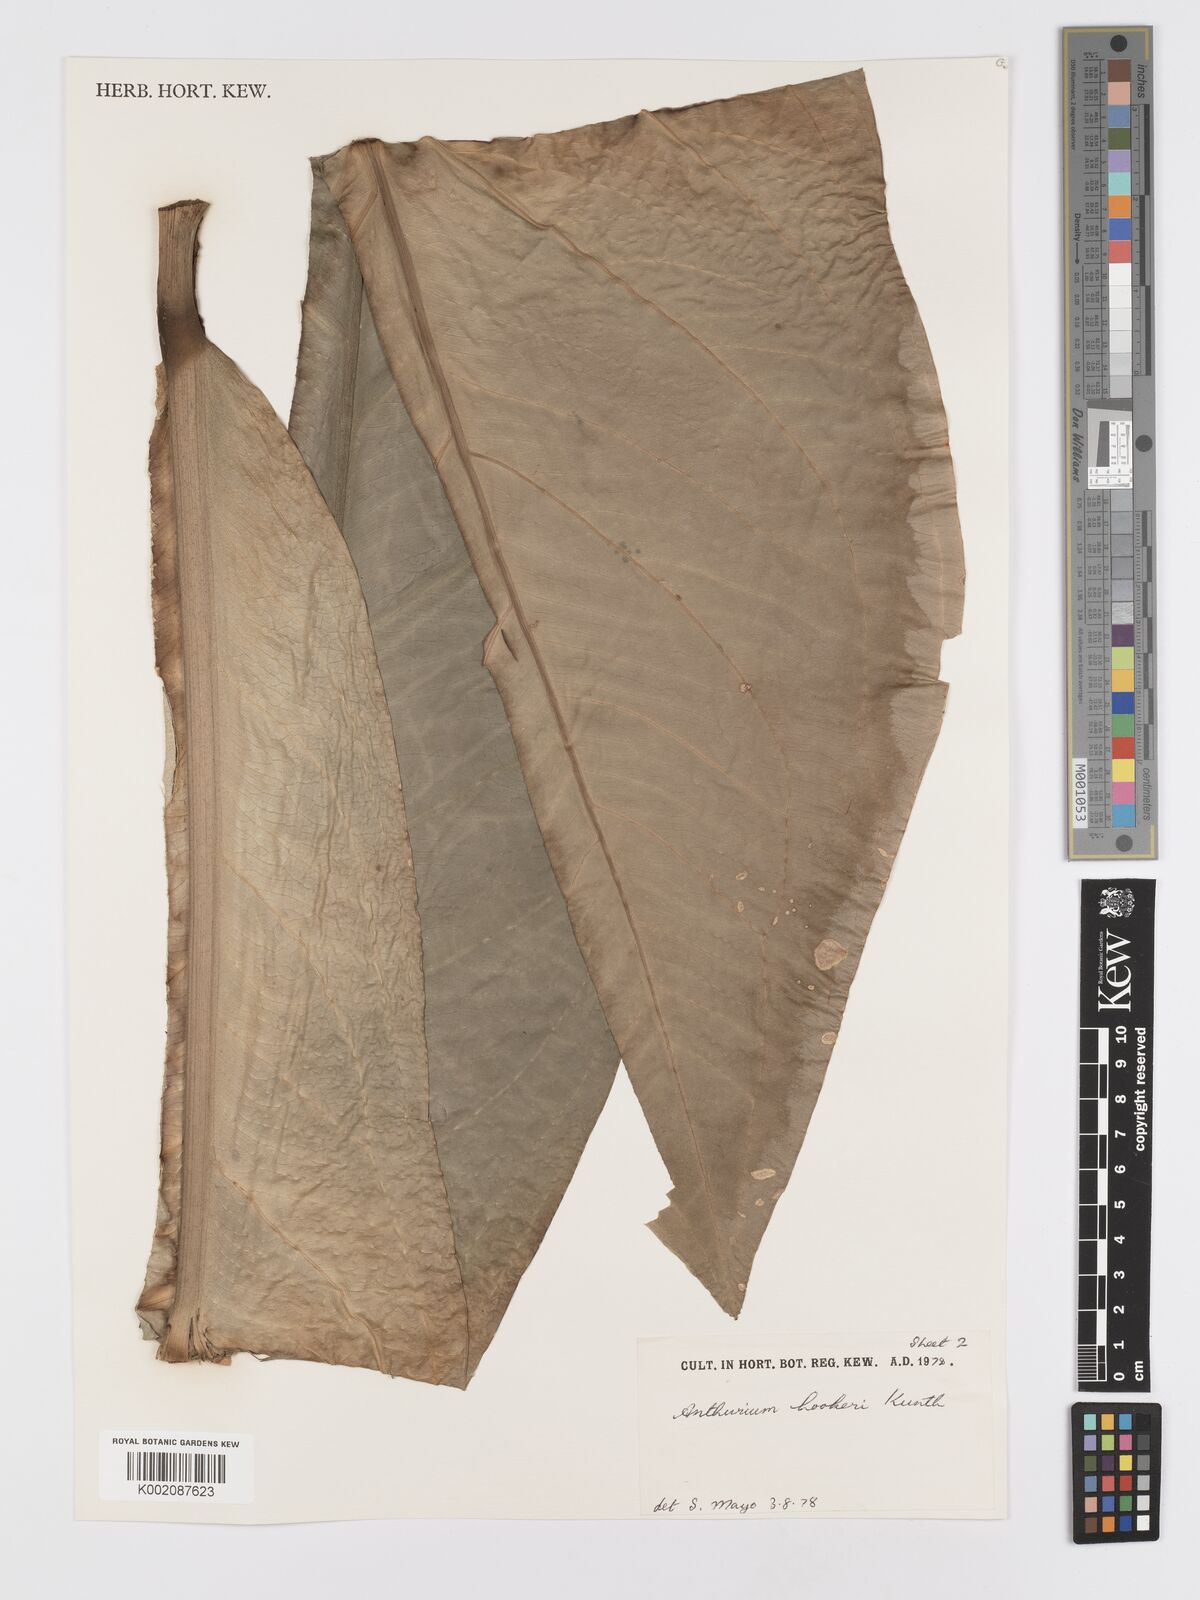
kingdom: Plantae
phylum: Tracheophyta
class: Liliopsida
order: Alismatales
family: Araceae
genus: Anthurium
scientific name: Anthurium hookeri
